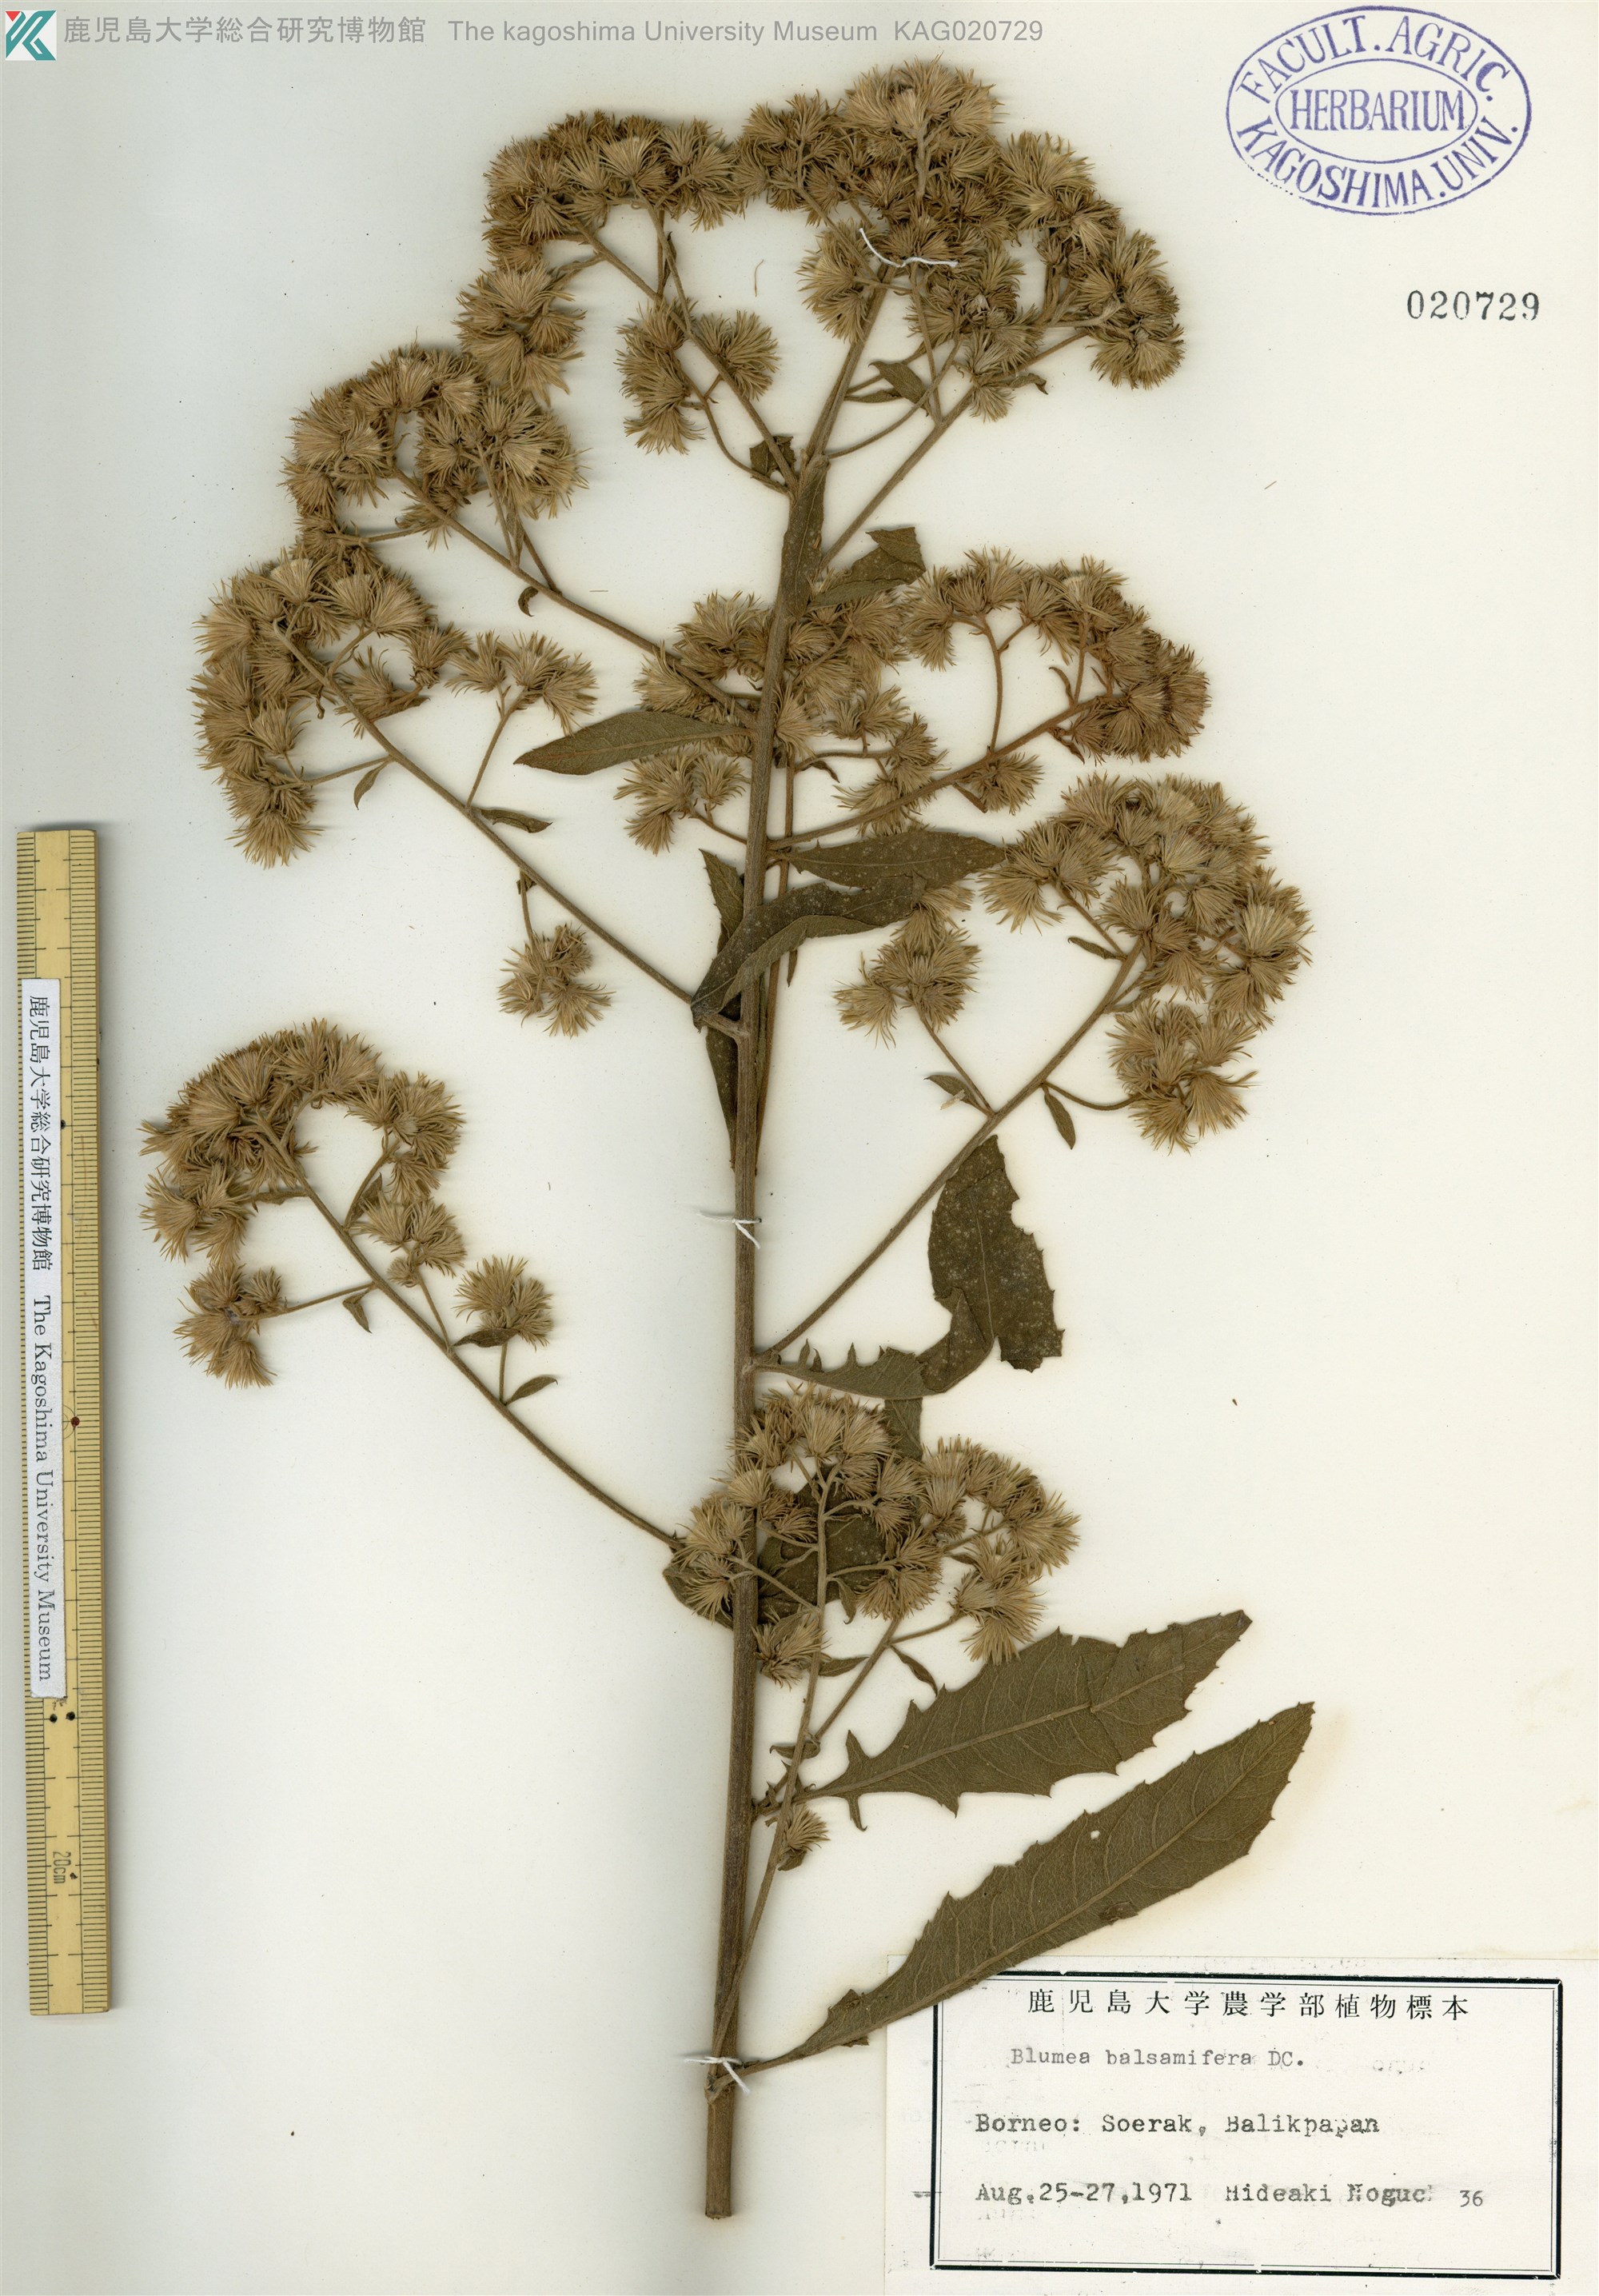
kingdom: Plantae
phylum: Tracheophyta
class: Magnoliopsida
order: Asterales
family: Asteraceae
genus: Blumea
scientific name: Blumea balsamifera
